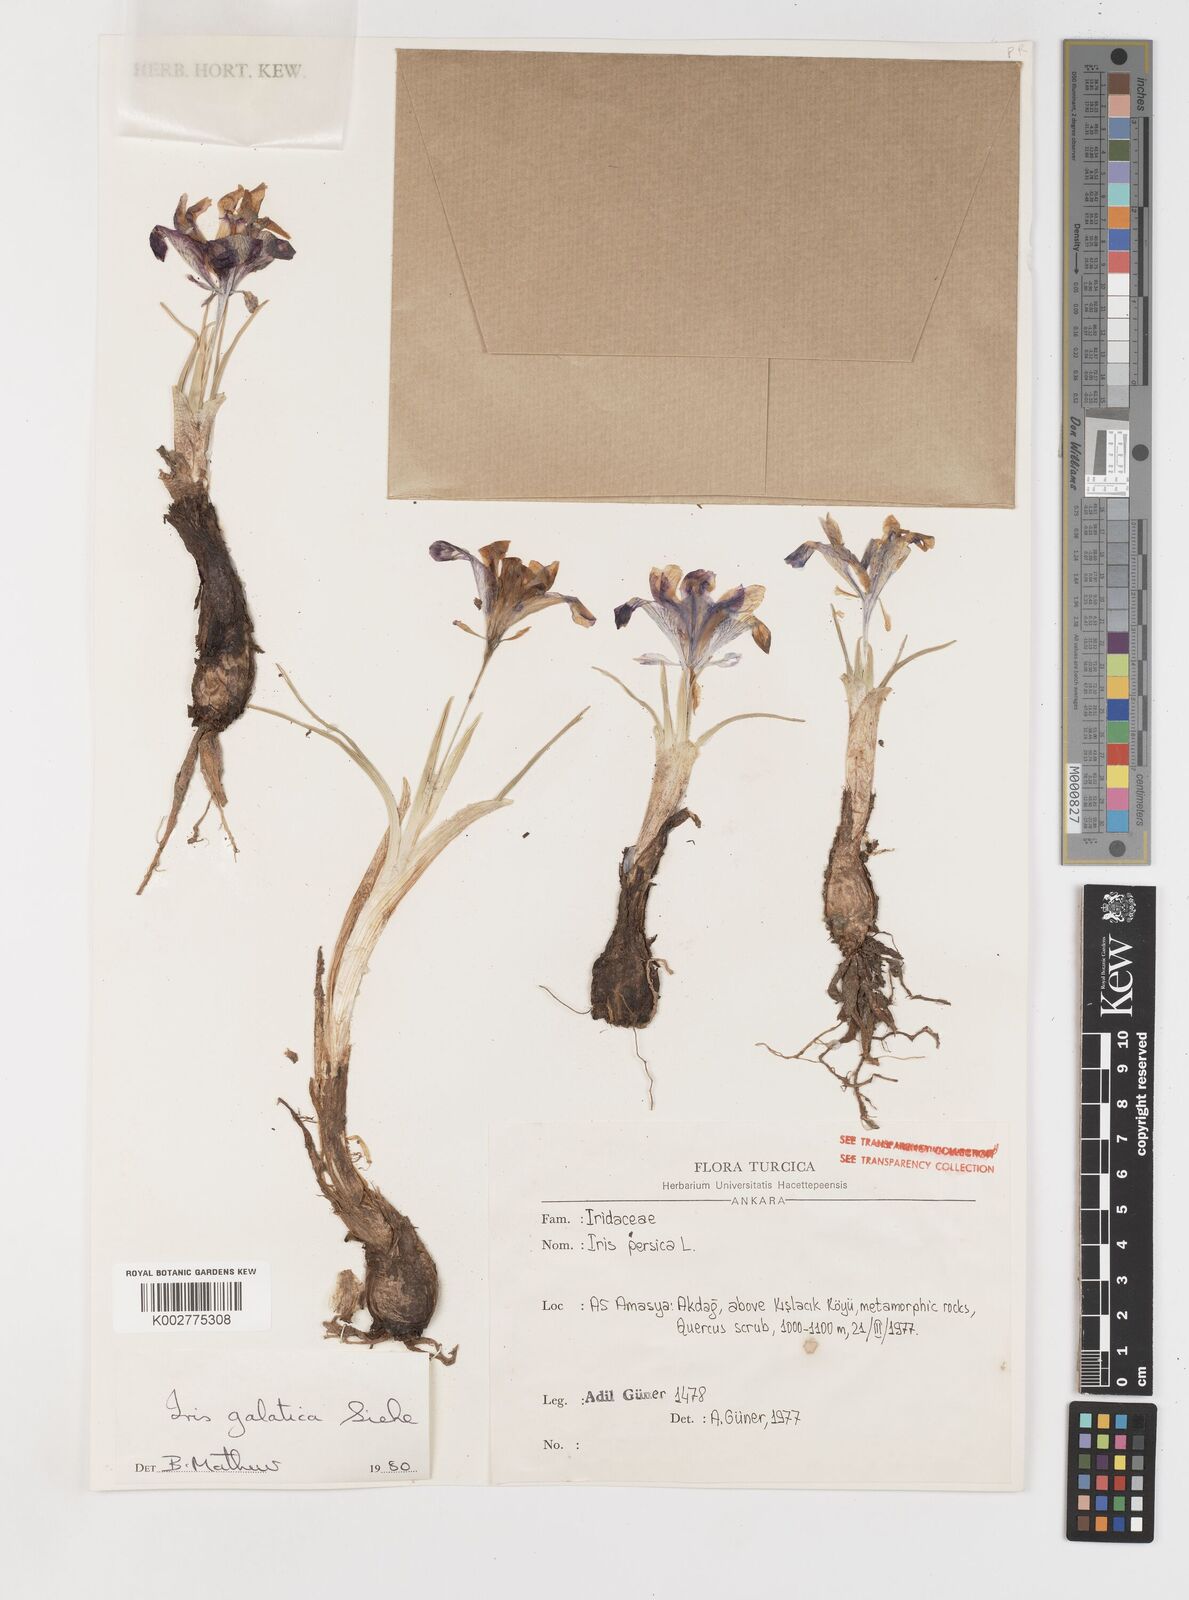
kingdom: Plantae
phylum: Tracheophyta
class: Liliopsida
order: Asparagales
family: Iridaceae
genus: Iris
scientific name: Iris
